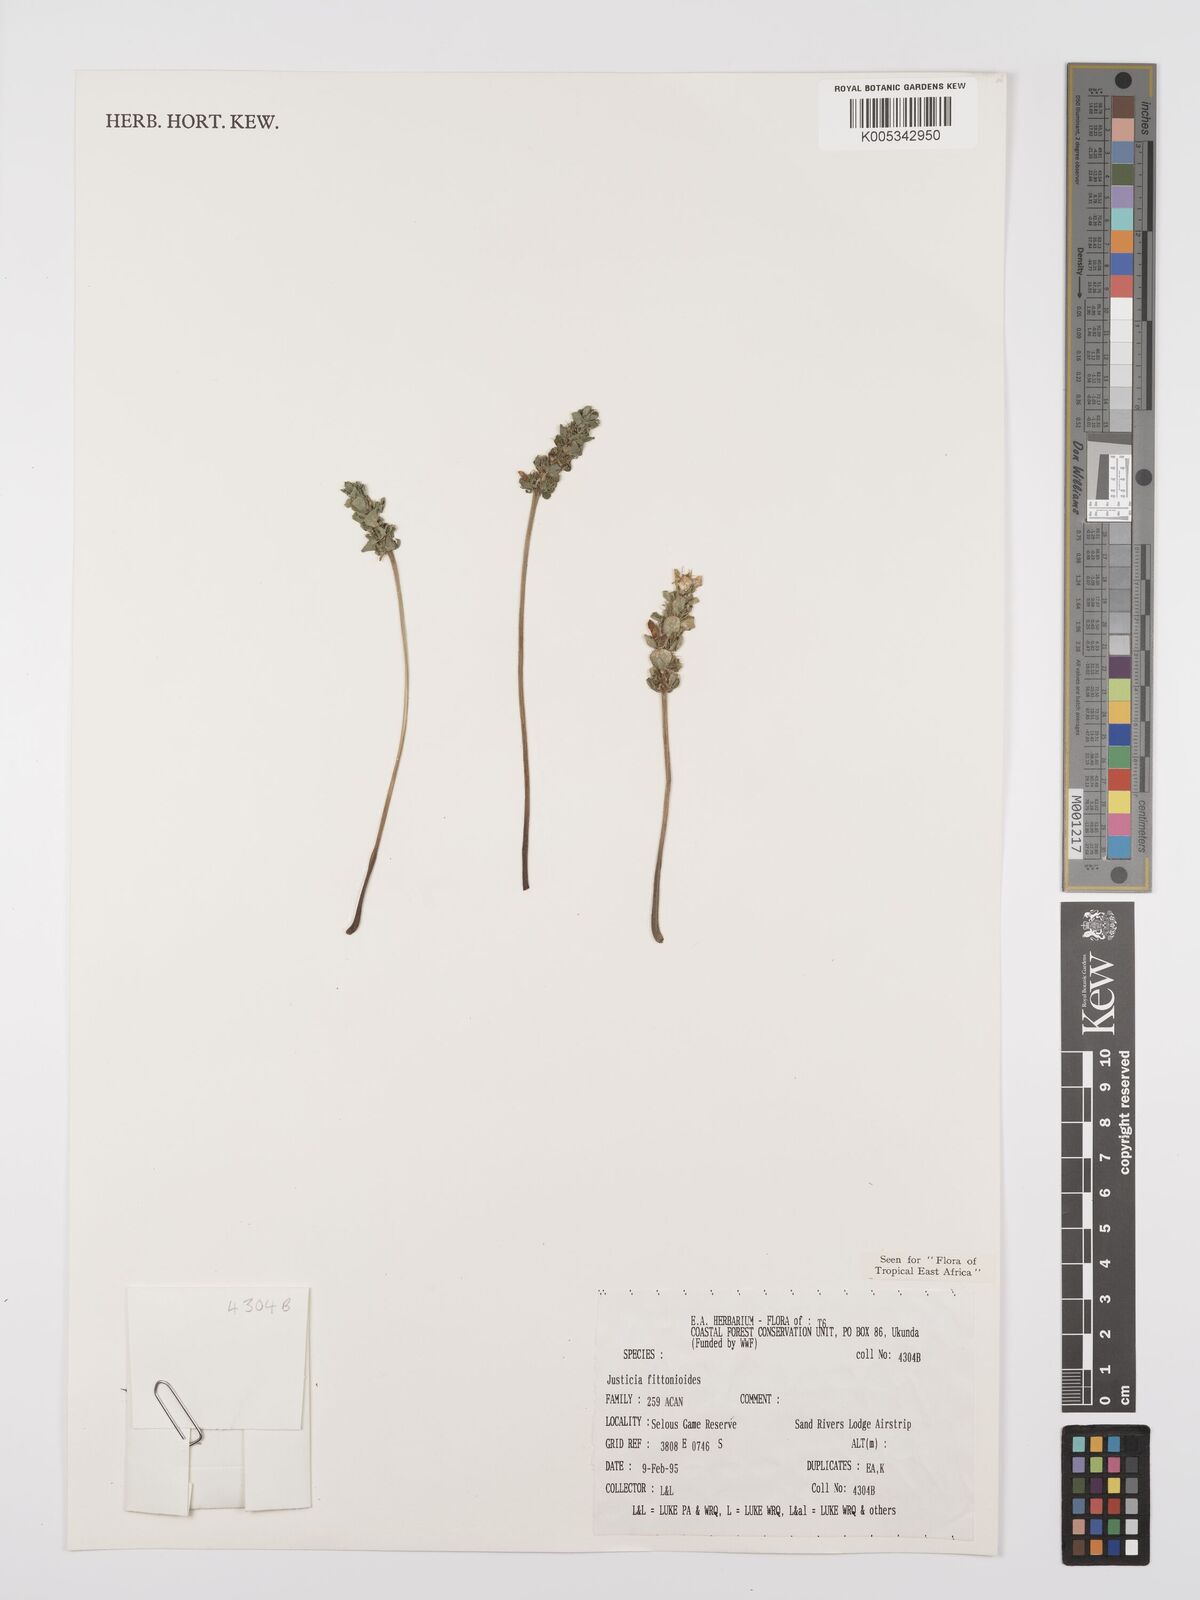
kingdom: Plantae
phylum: Tracheophyta
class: Magnoliopsida
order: Lamiales
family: Acanthaceae
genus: Justicia
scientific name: Justicia
